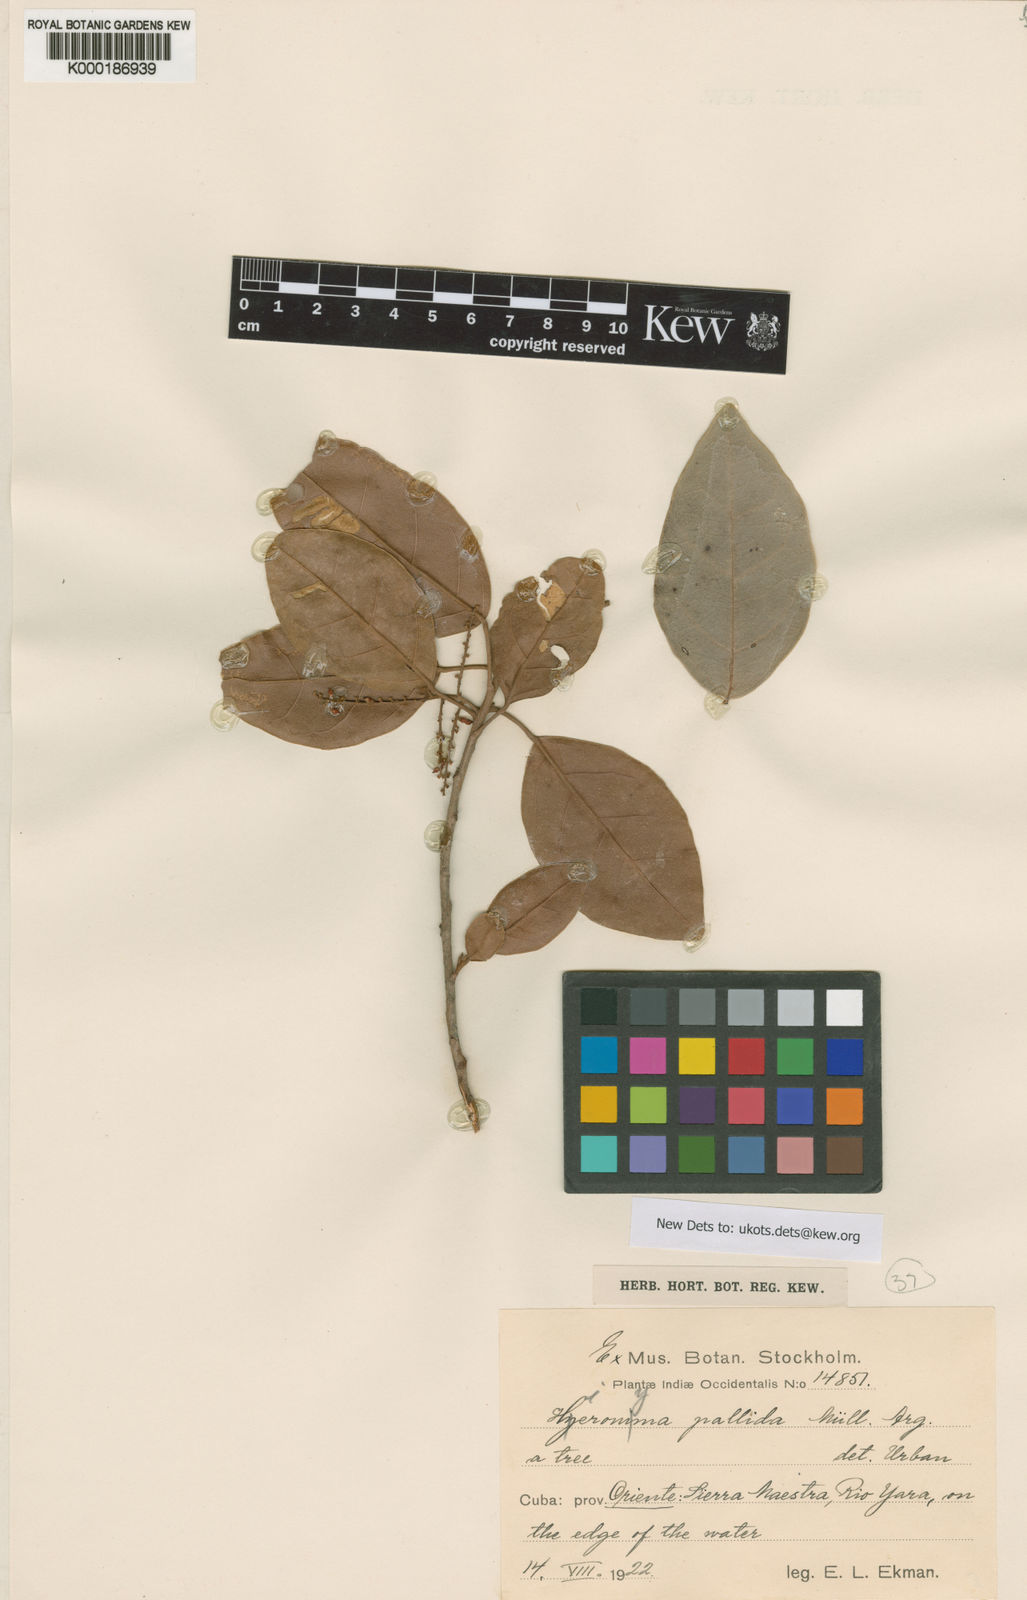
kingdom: Plantae
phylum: Tracheophyta
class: Magnoliopsida
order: Malpighiales
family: Phyllanthaceae
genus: Hieronyma
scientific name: Hieronyma clusioides
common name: Cedro macho
